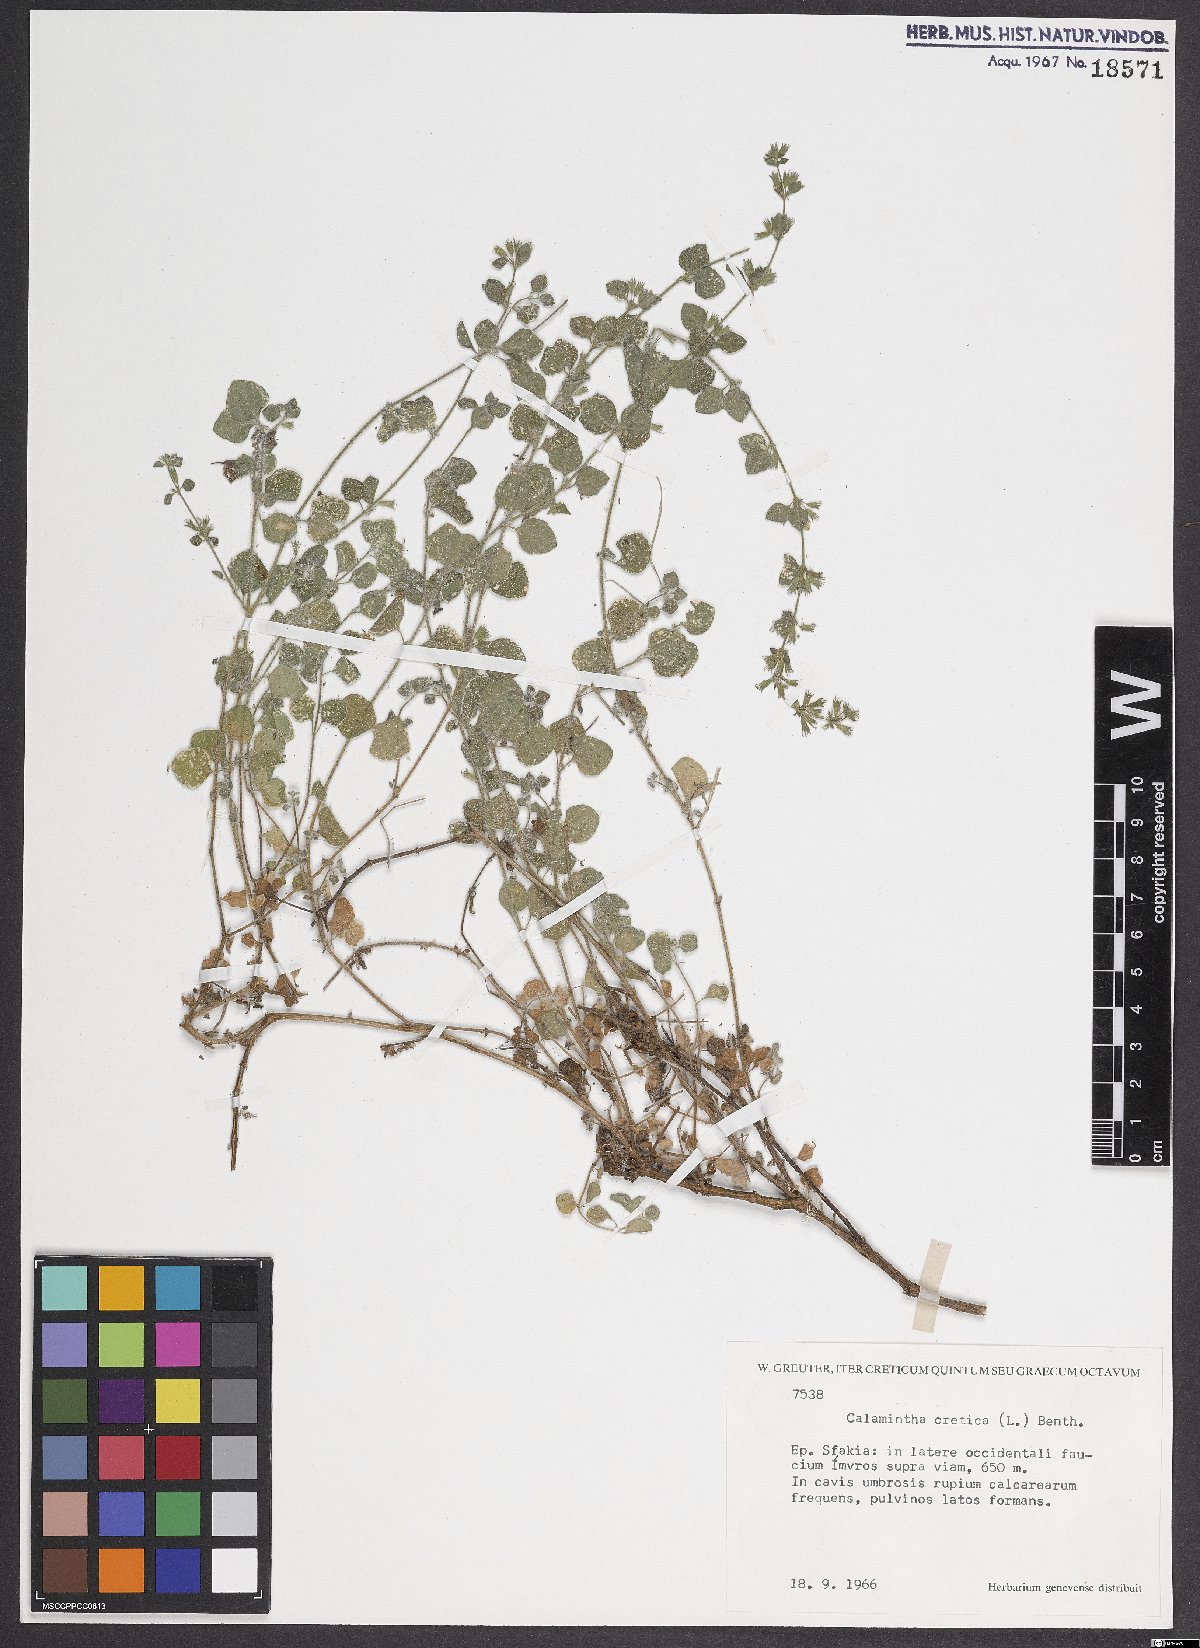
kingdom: Plantae
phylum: Tracheophyta
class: Magnoliopsida
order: Lamiales
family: Lamiaceae
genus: Clinopodium
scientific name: Clinopodium creticum
